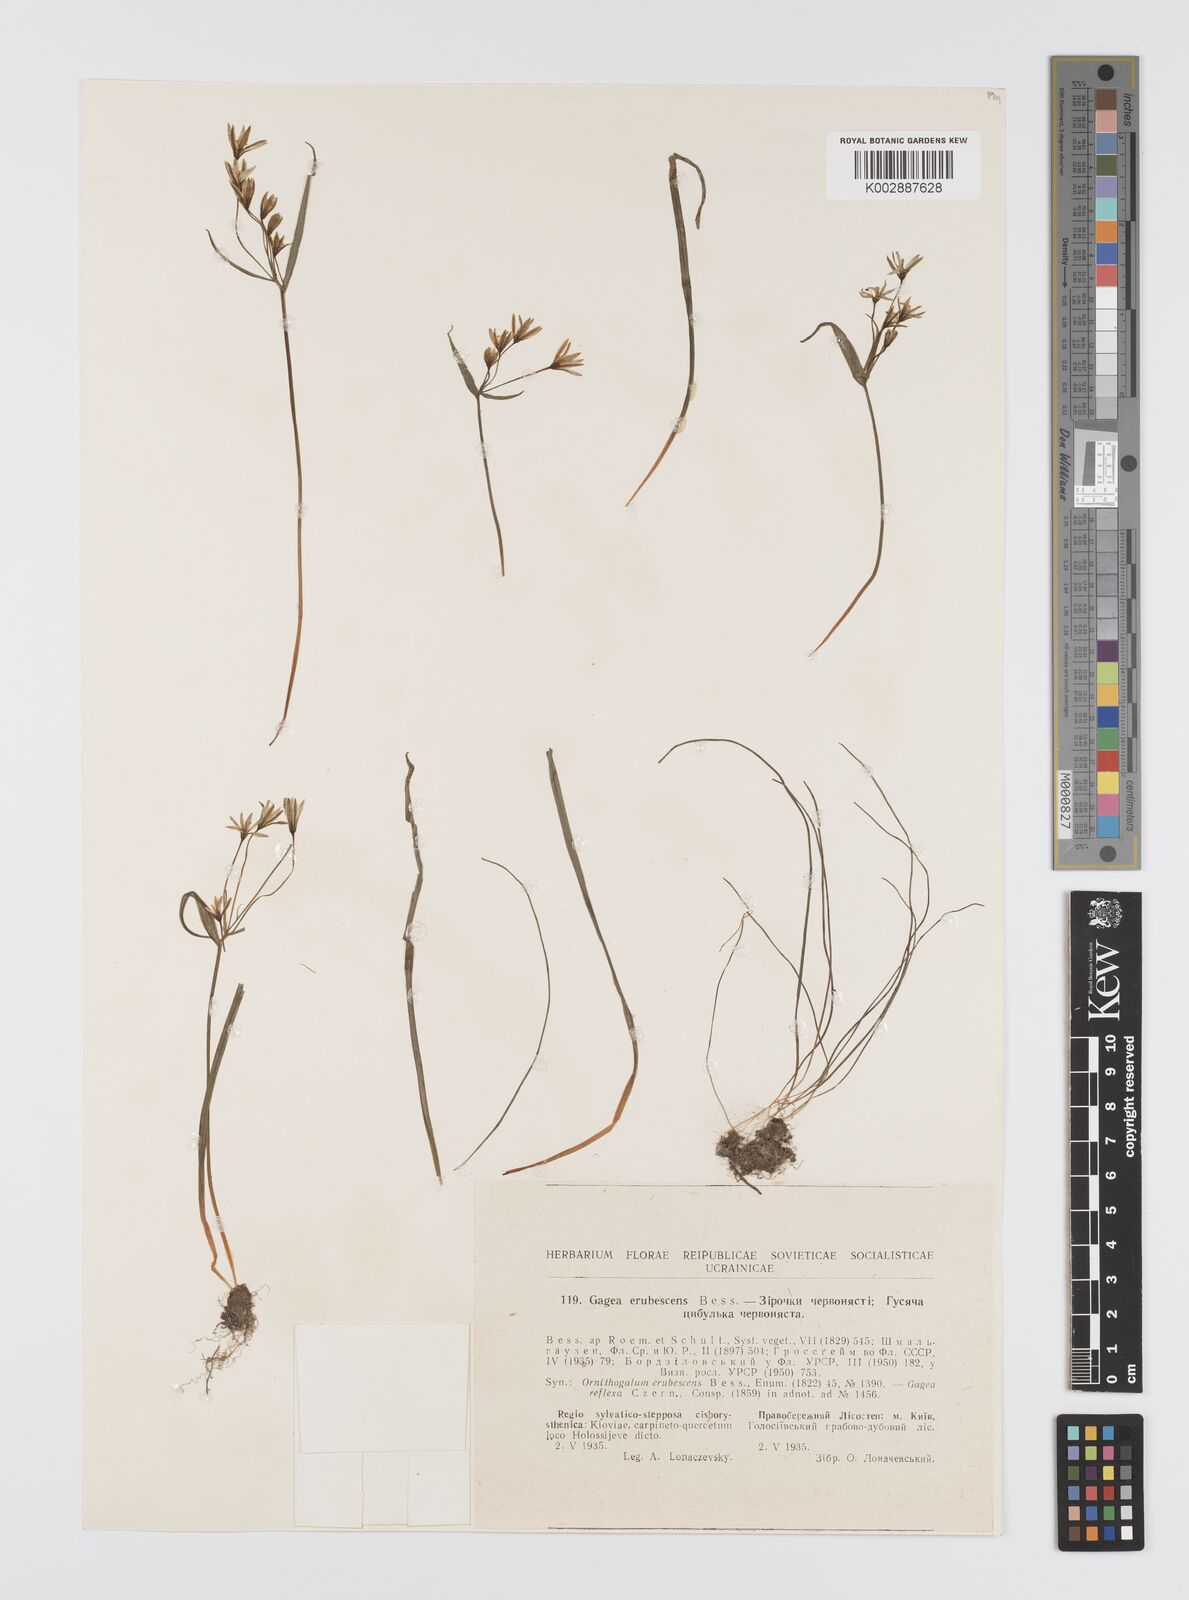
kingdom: Plantae
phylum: Tracheophyta
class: Liliopsida
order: Liliales
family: Liliaceae
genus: Gagea
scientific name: Gagea fragifera
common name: Lily
